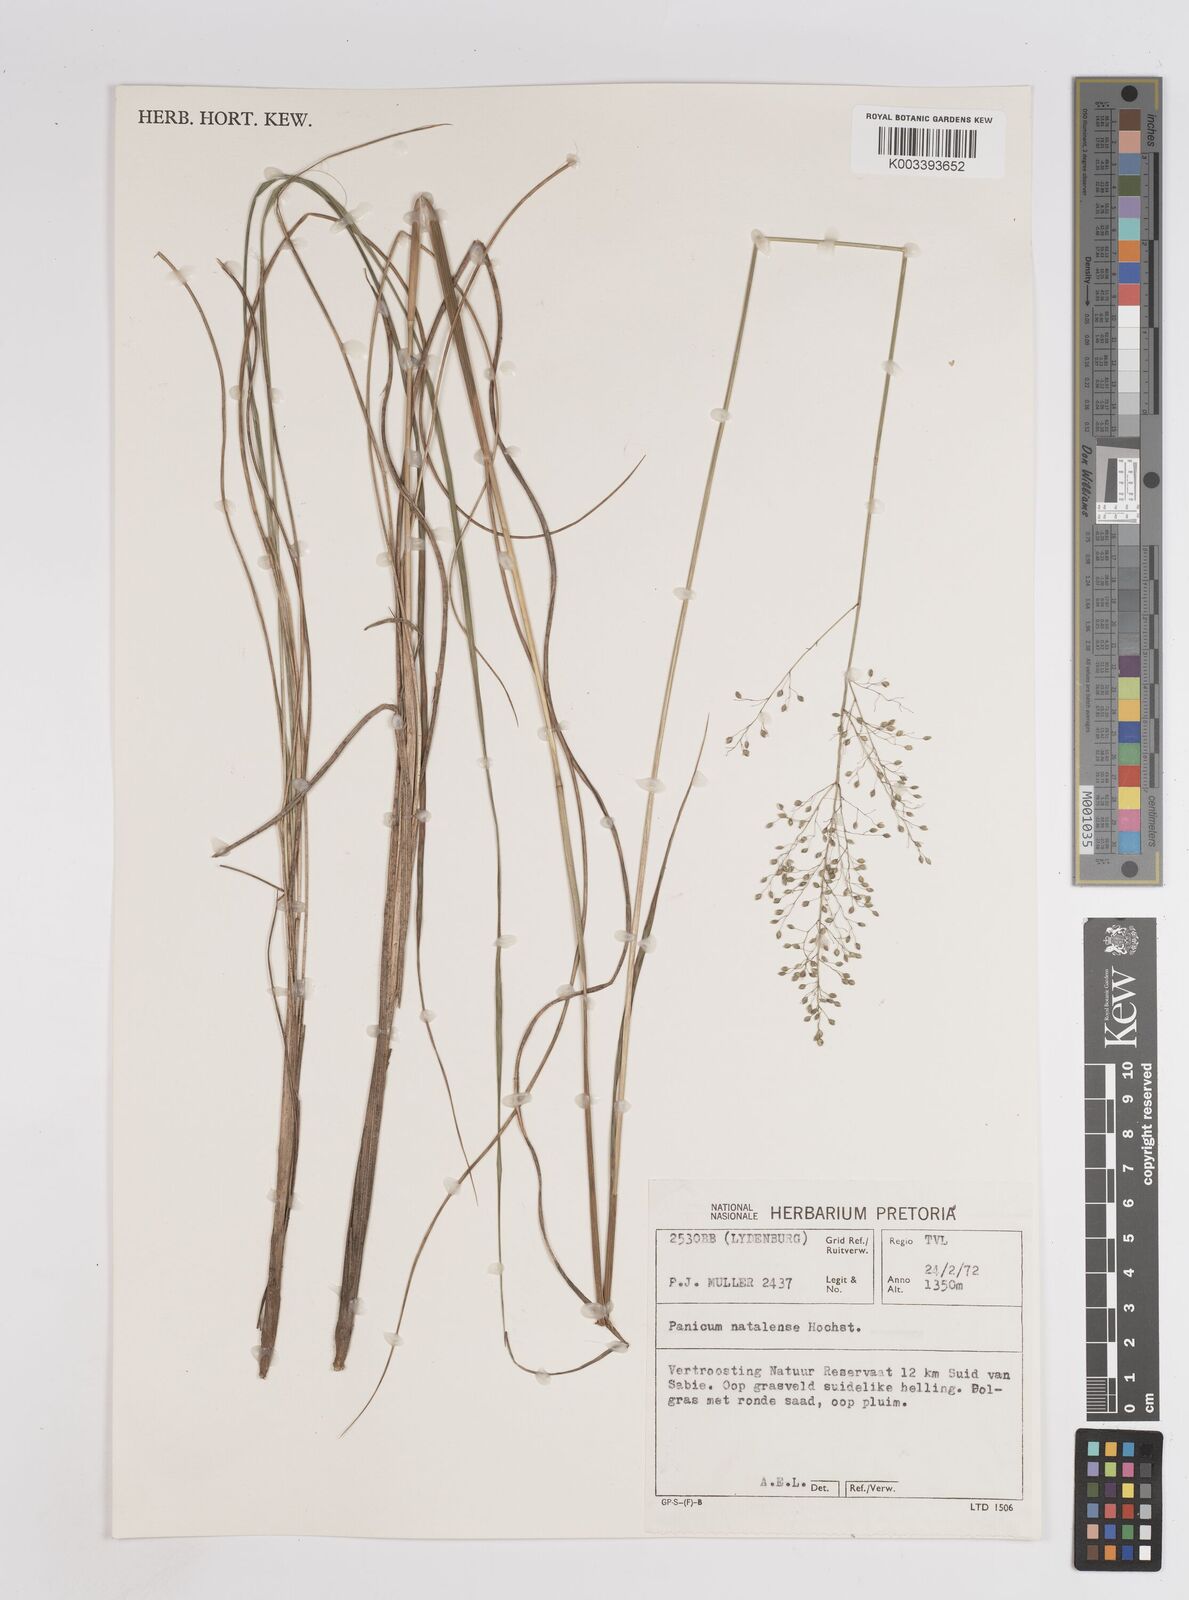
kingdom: Plantae
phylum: Tracheophyta
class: Liliopsida
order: Poales
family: Poaceae
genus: Trichanthecium
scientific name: Trichanthecium natalense
